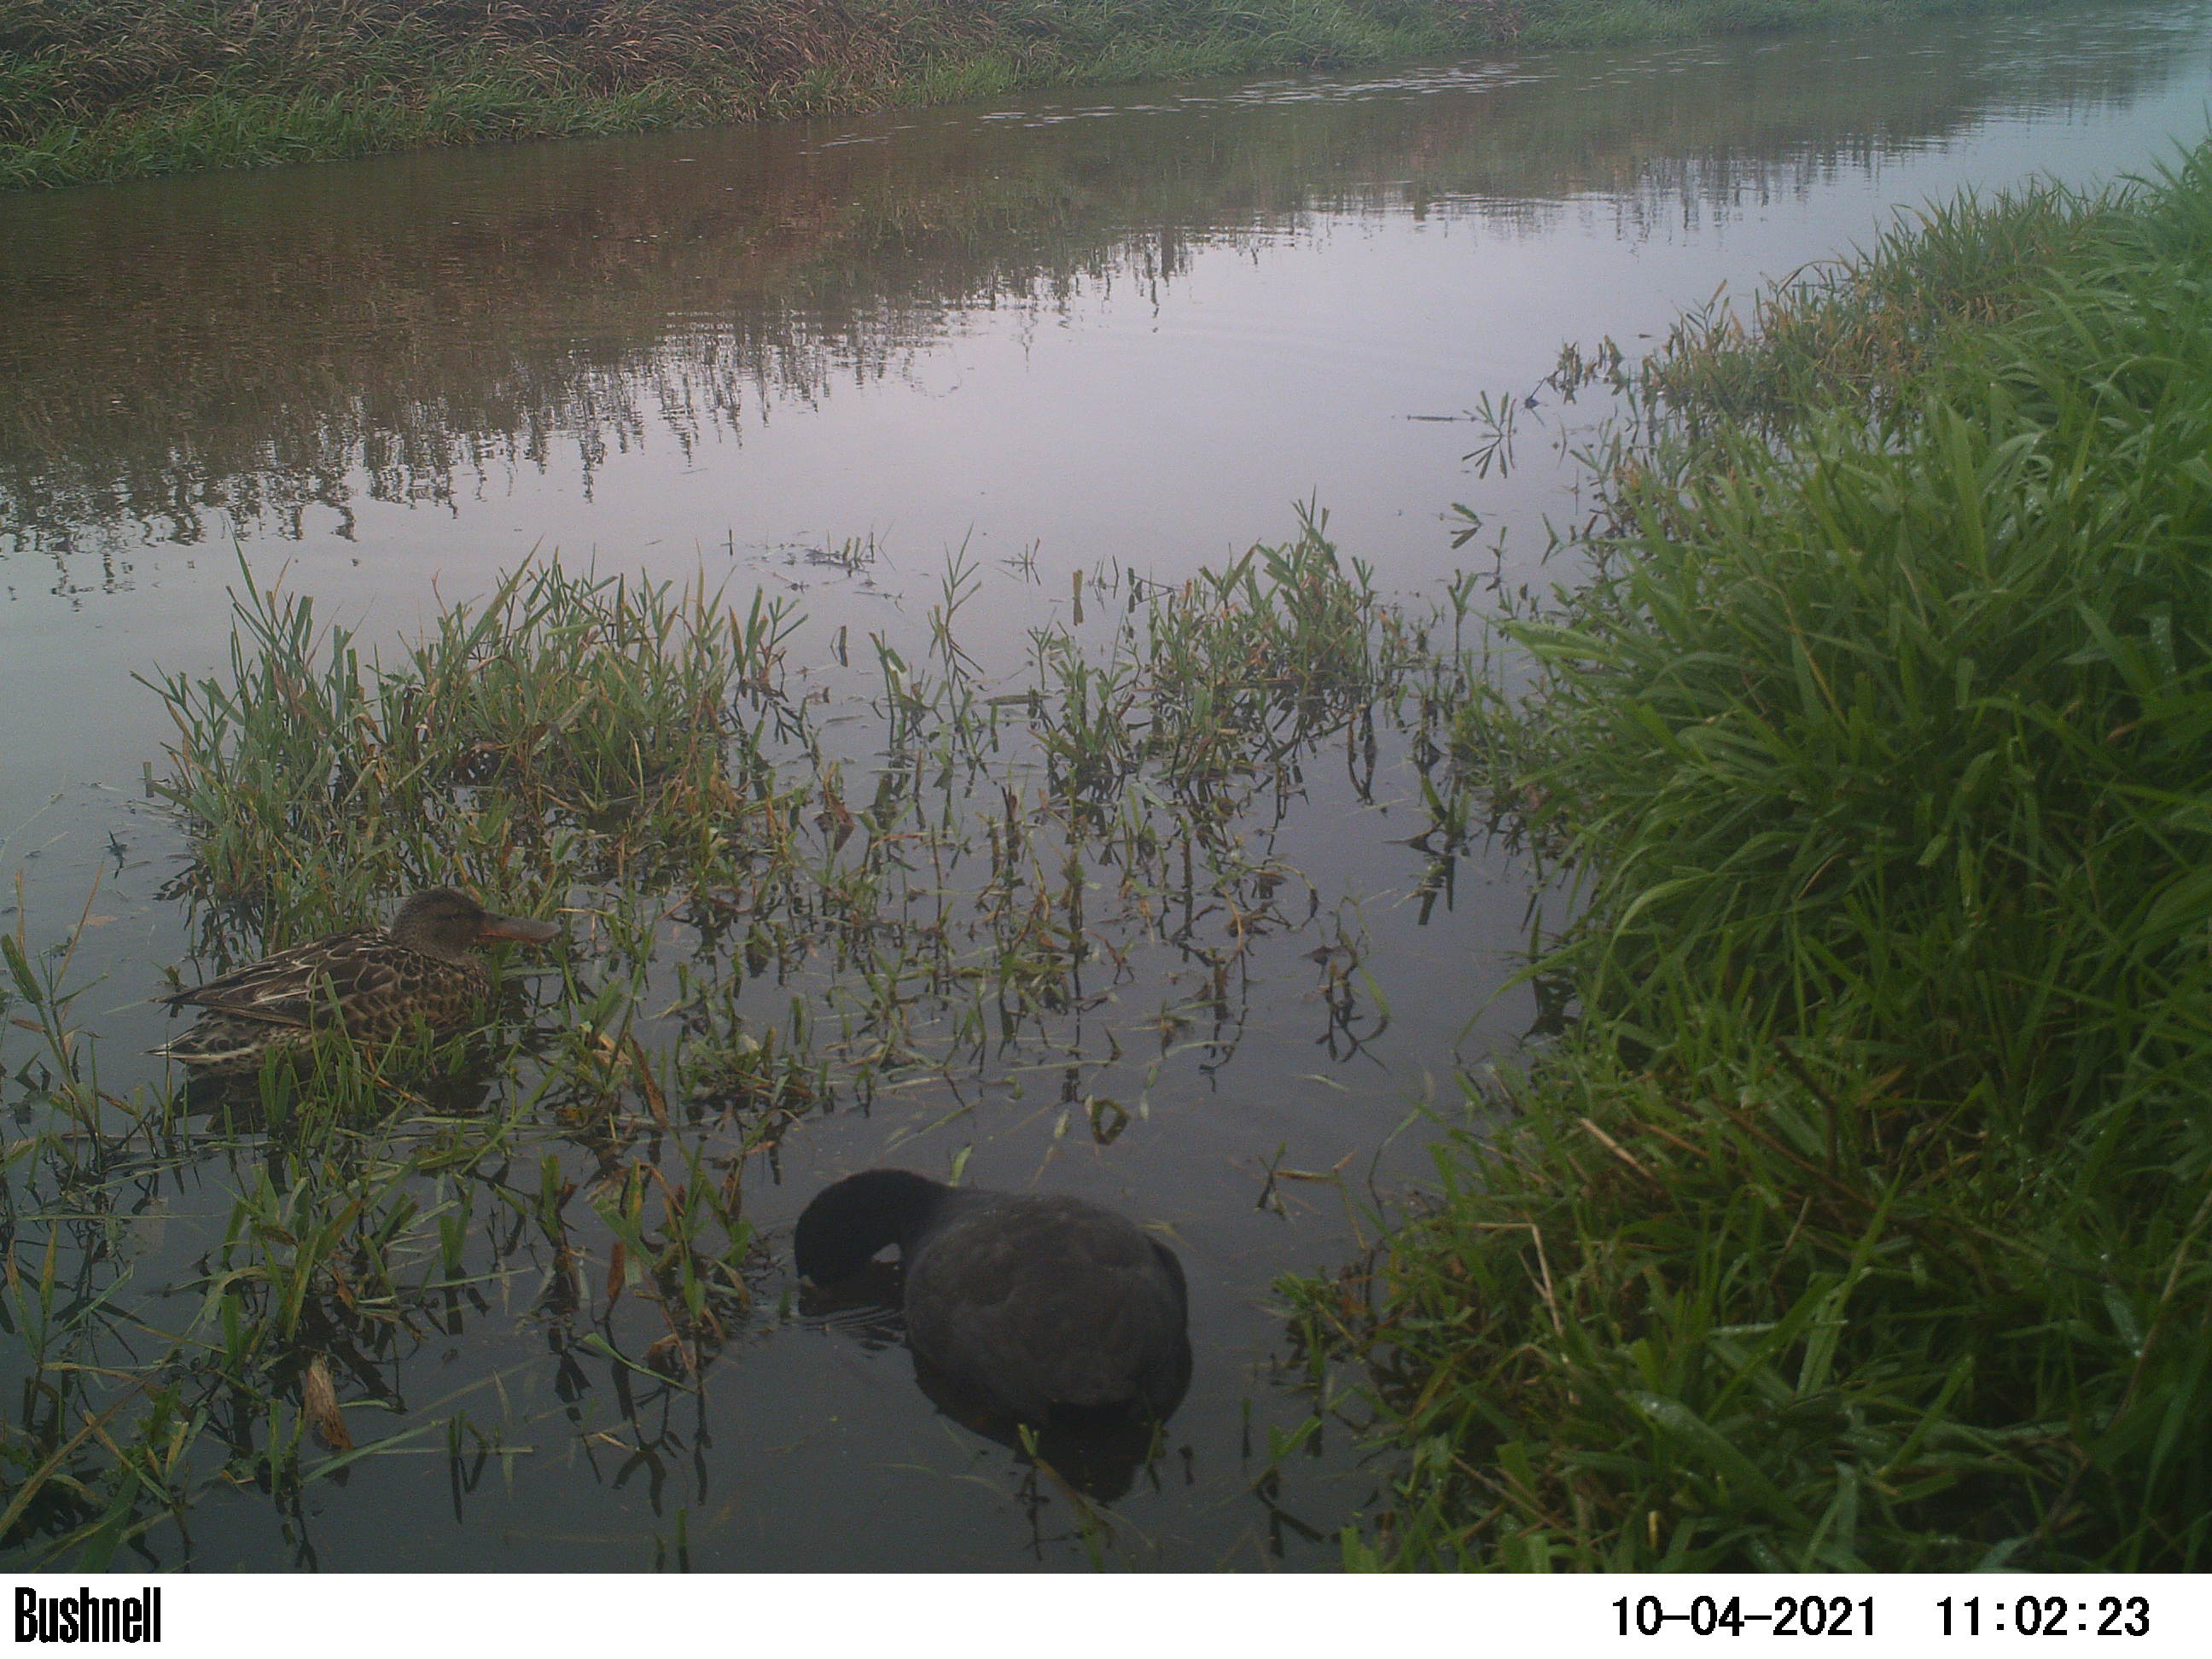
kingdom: Animalia
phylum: Chordata
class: Aves
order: Gruiformes
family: Rallidae
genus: Gallinula
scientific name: Gallinula chloropus
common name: Common moorhen
